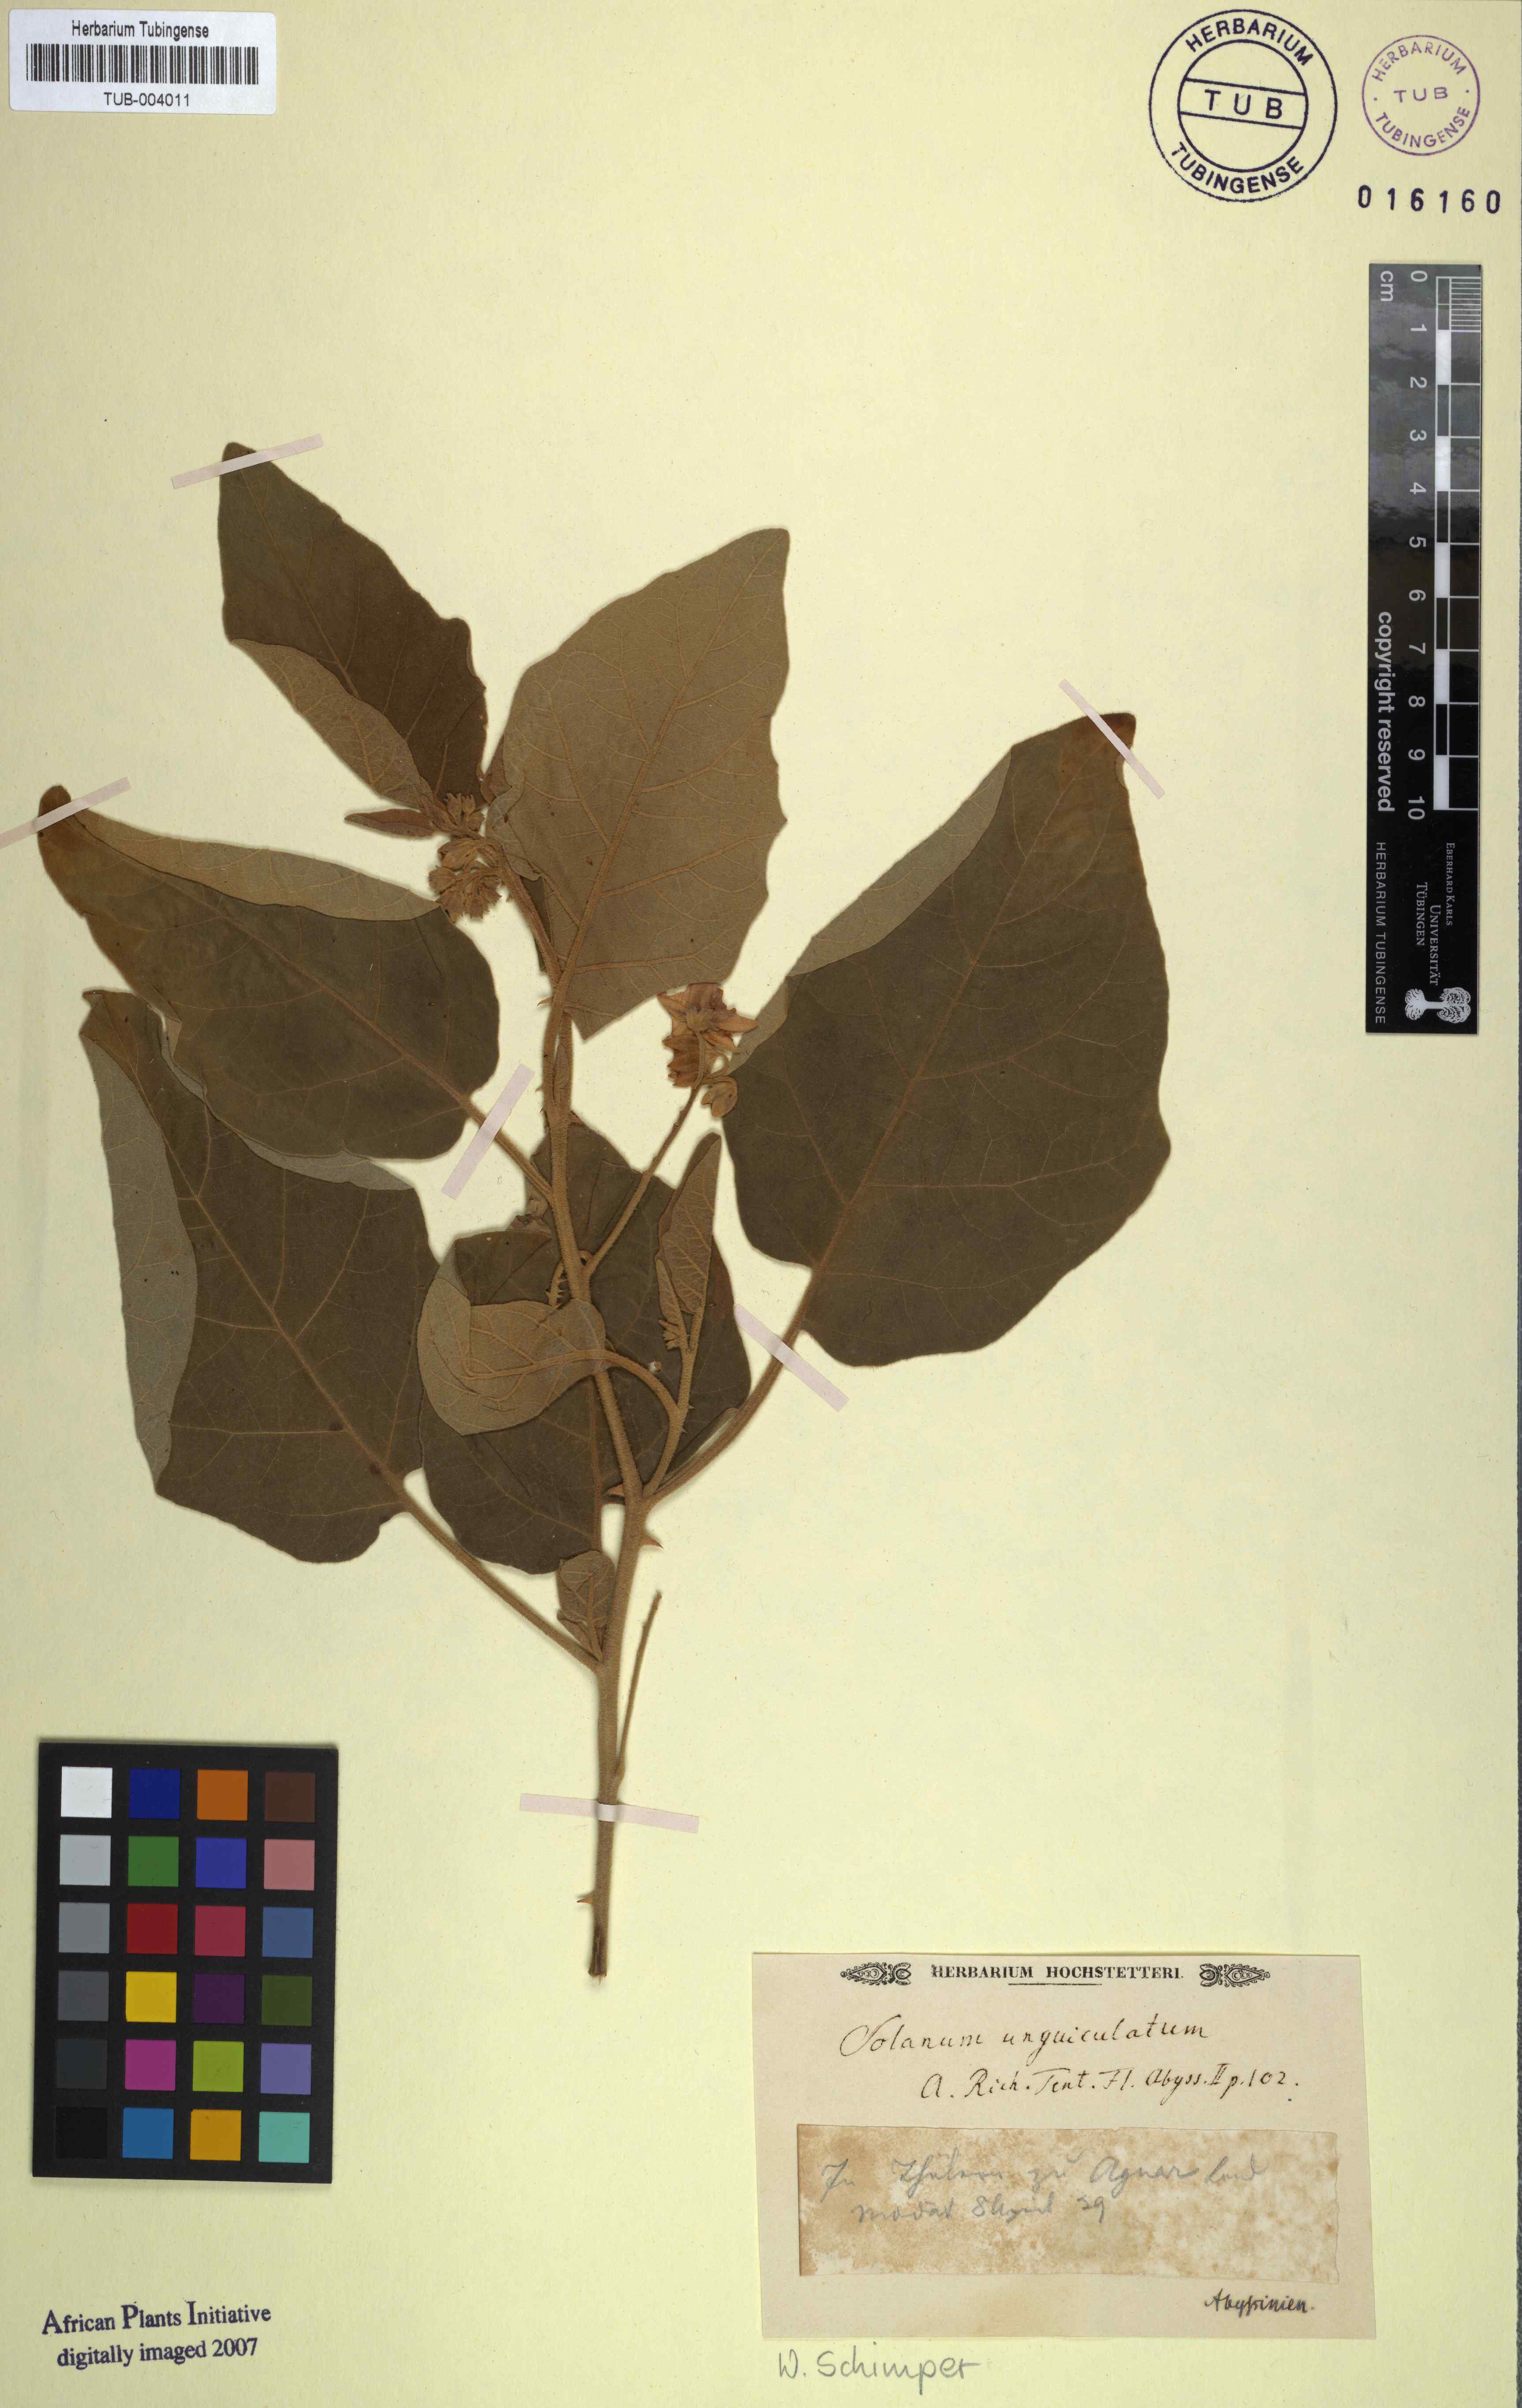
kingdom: Plantae
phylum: Tracheophyta
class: Magnoliopsida
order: Solanales
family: Solanaceae
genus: Solanum
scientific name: Solanum incanum
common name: Bitter apple
